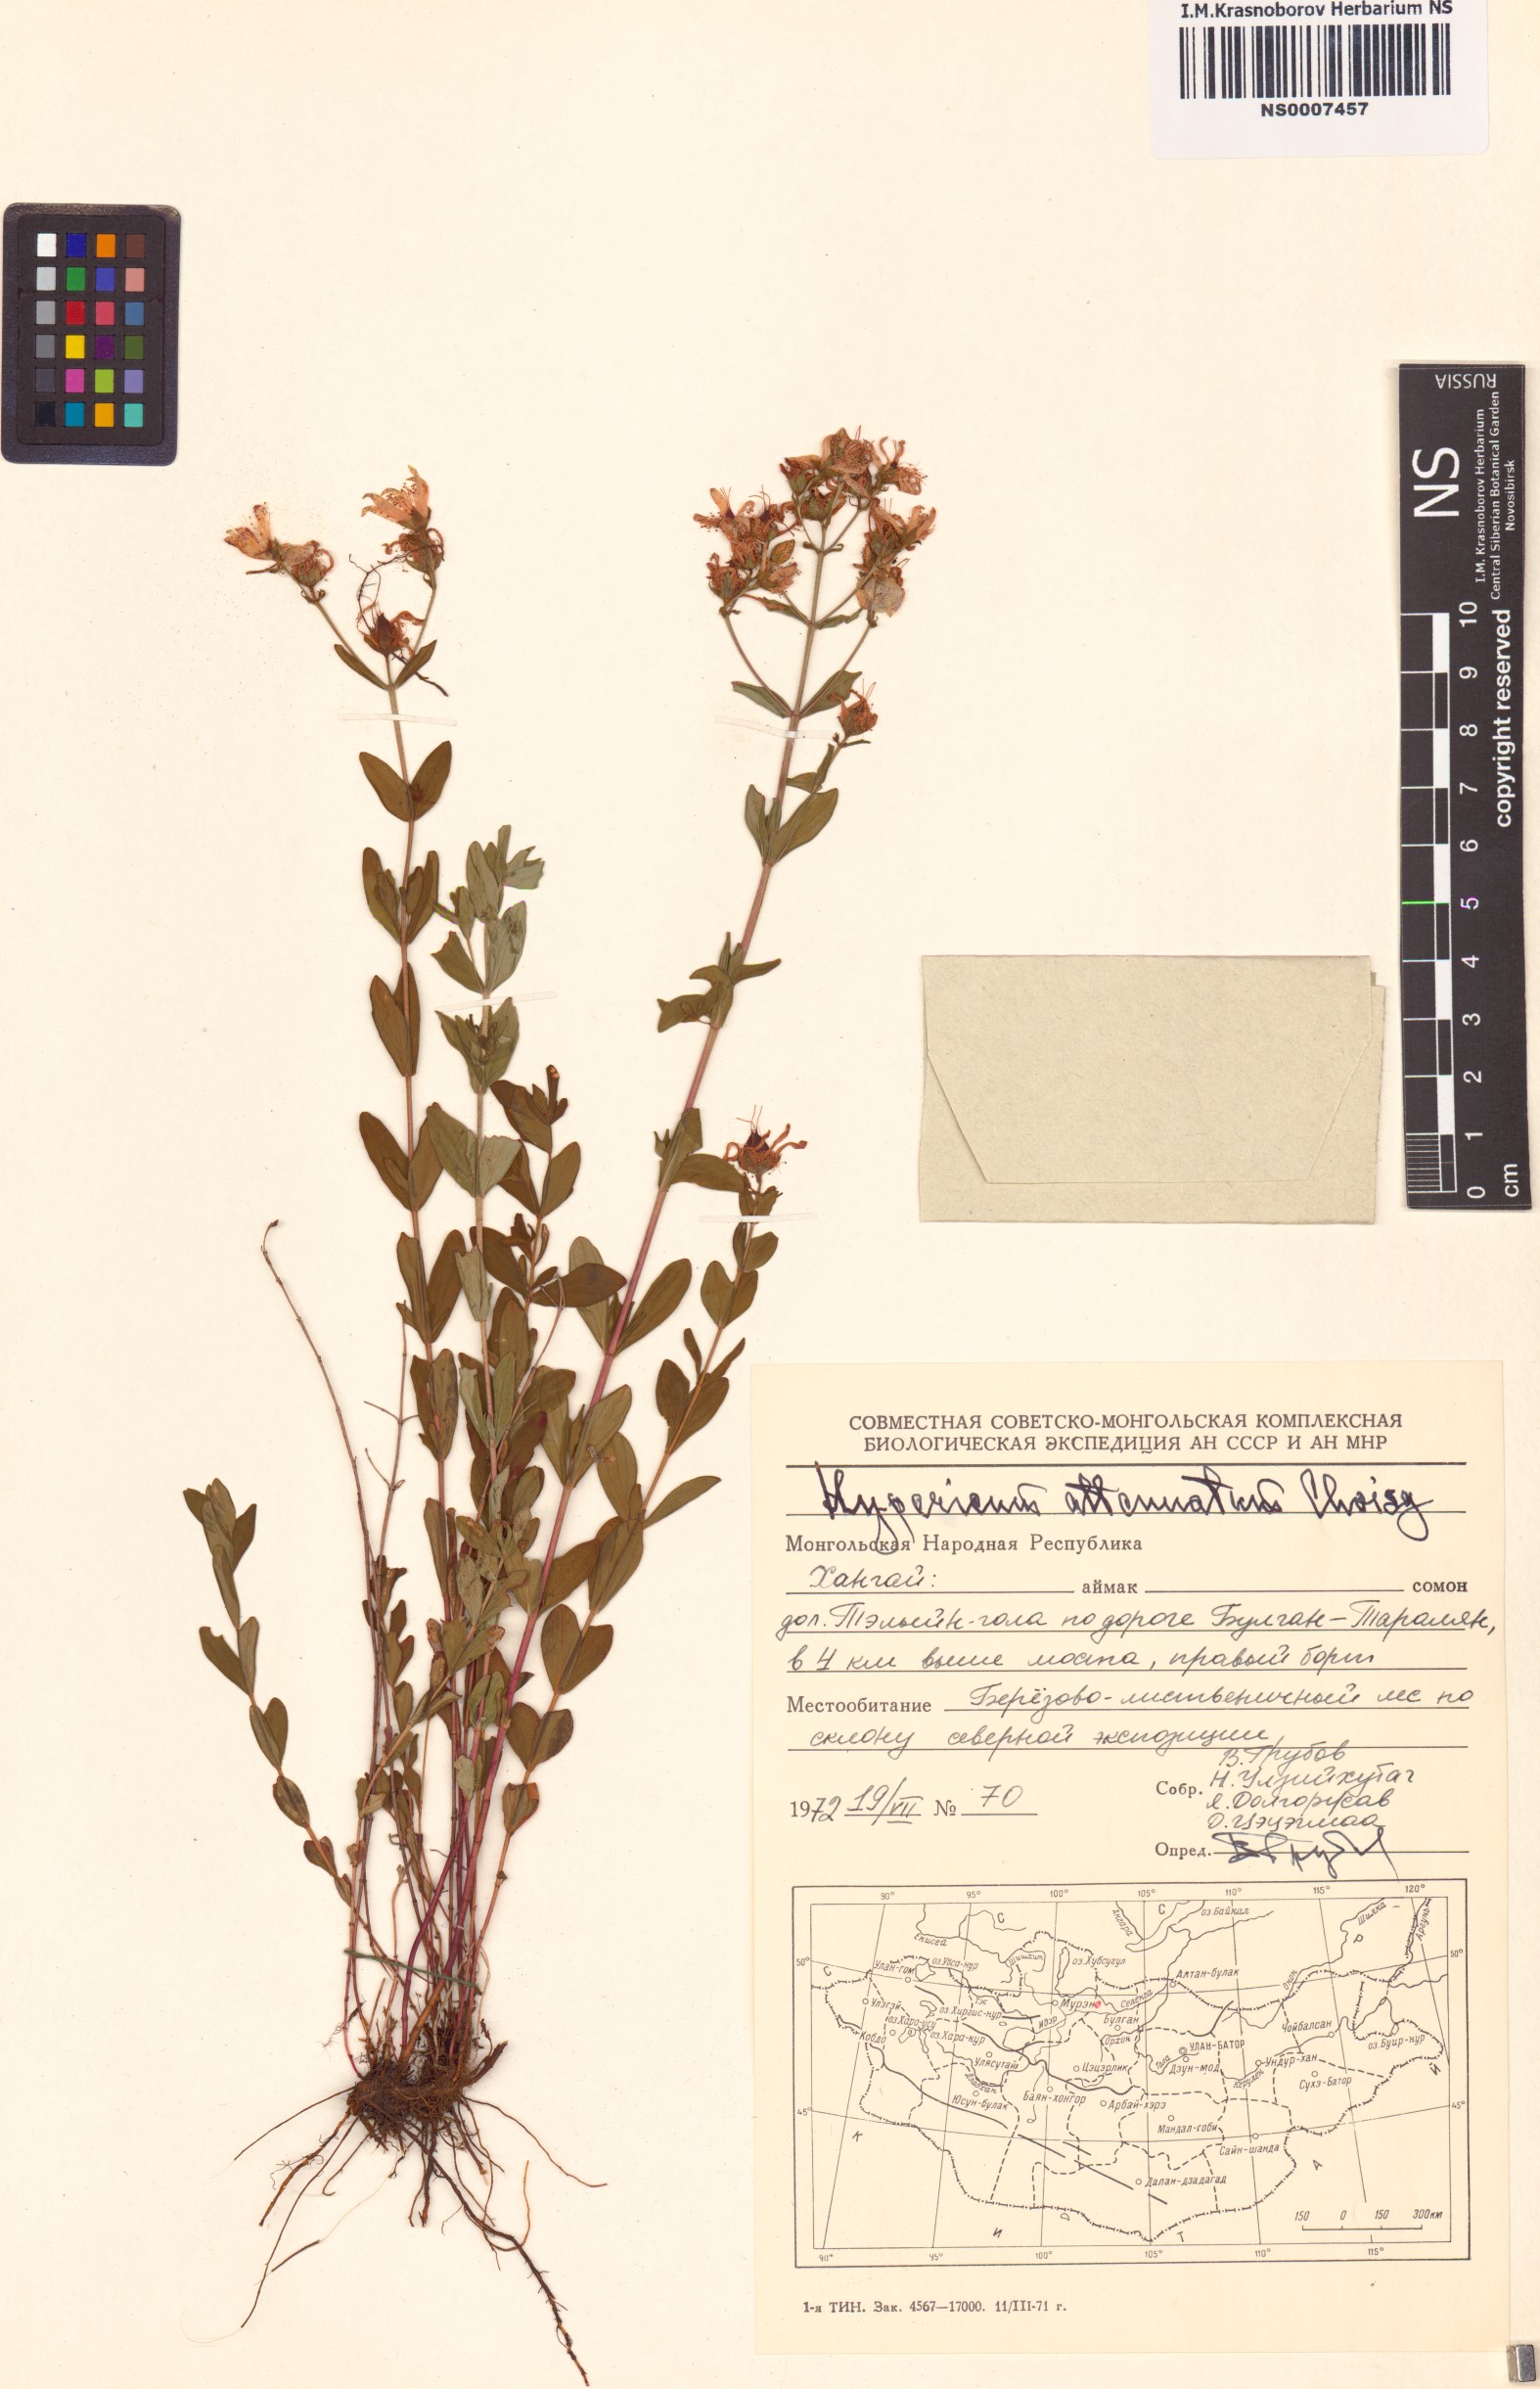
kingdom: Plantae
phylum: Tracheophyta
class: Magnoliopsida
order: Malpighiales
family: Hypericaceae
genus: Hypericum
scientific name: Hypericum attenuatum
